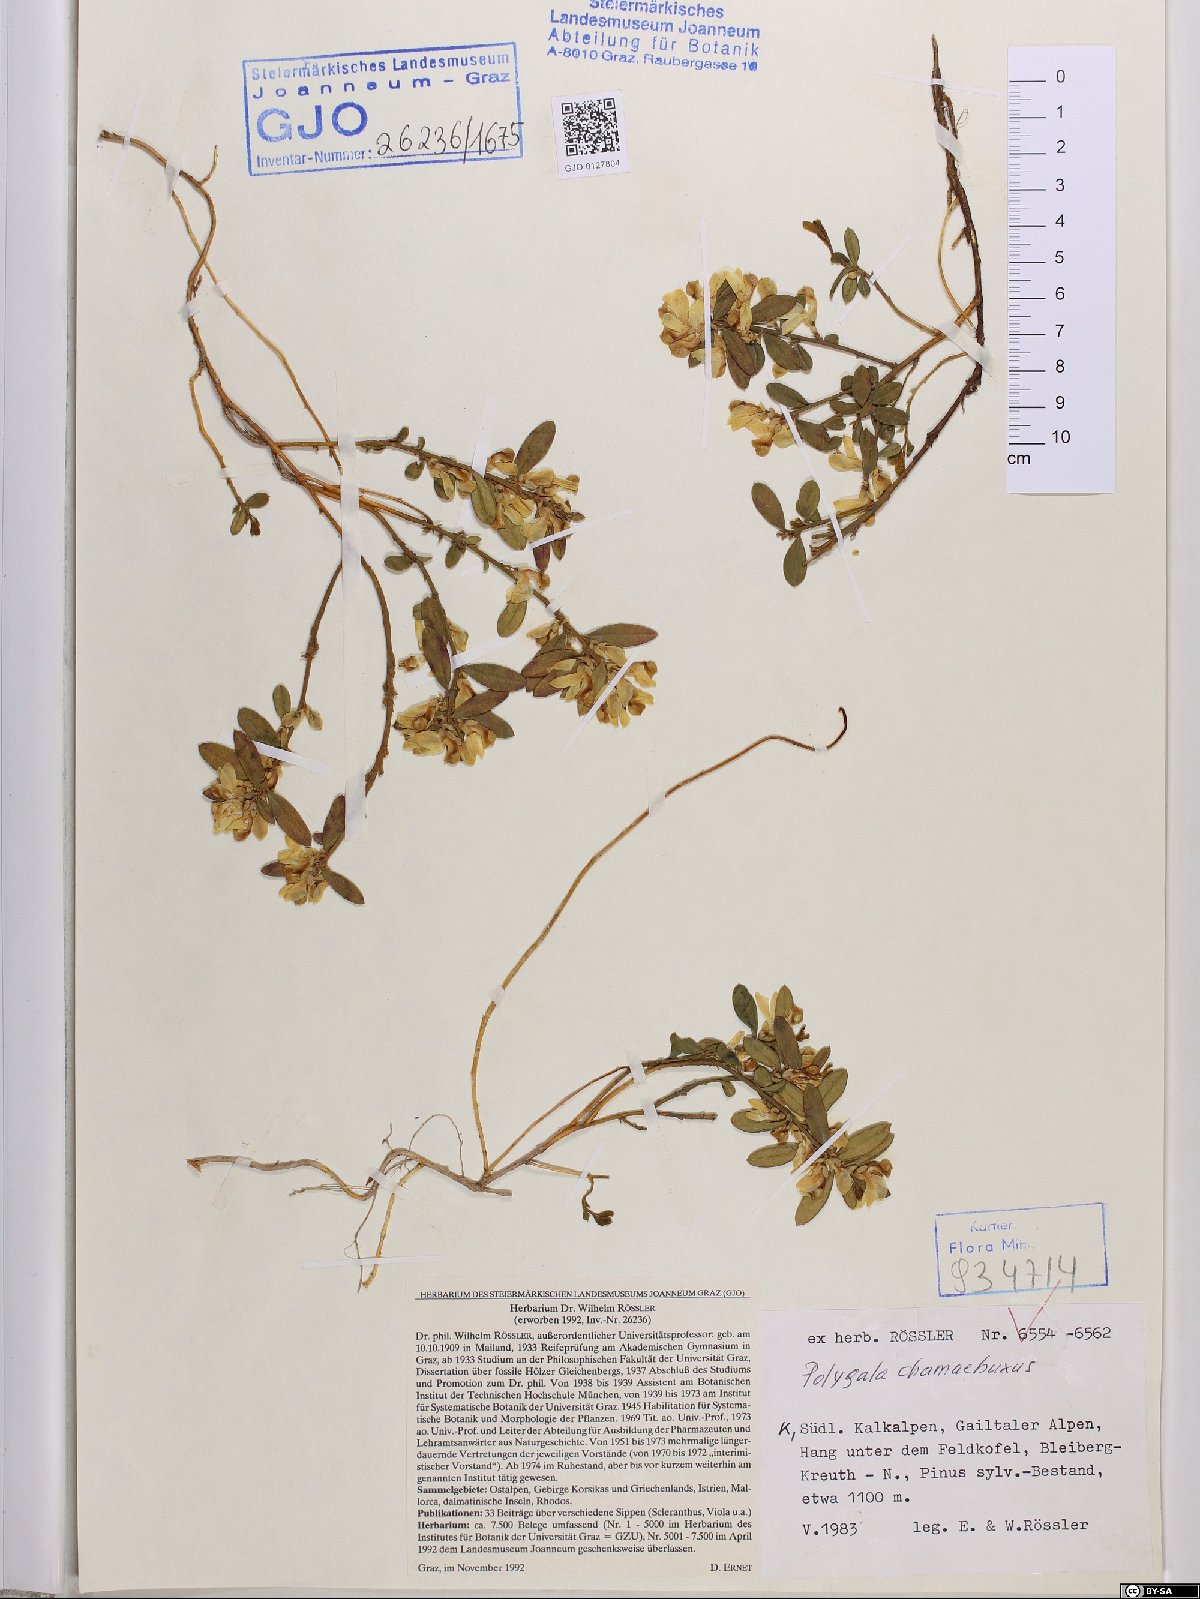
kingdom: Plantae
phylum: Tracheophyta
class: Magnoliopsida
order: Fabales
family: Polygalaceae
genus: Polygaloides
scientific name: Polygaloides chamaebuxus
